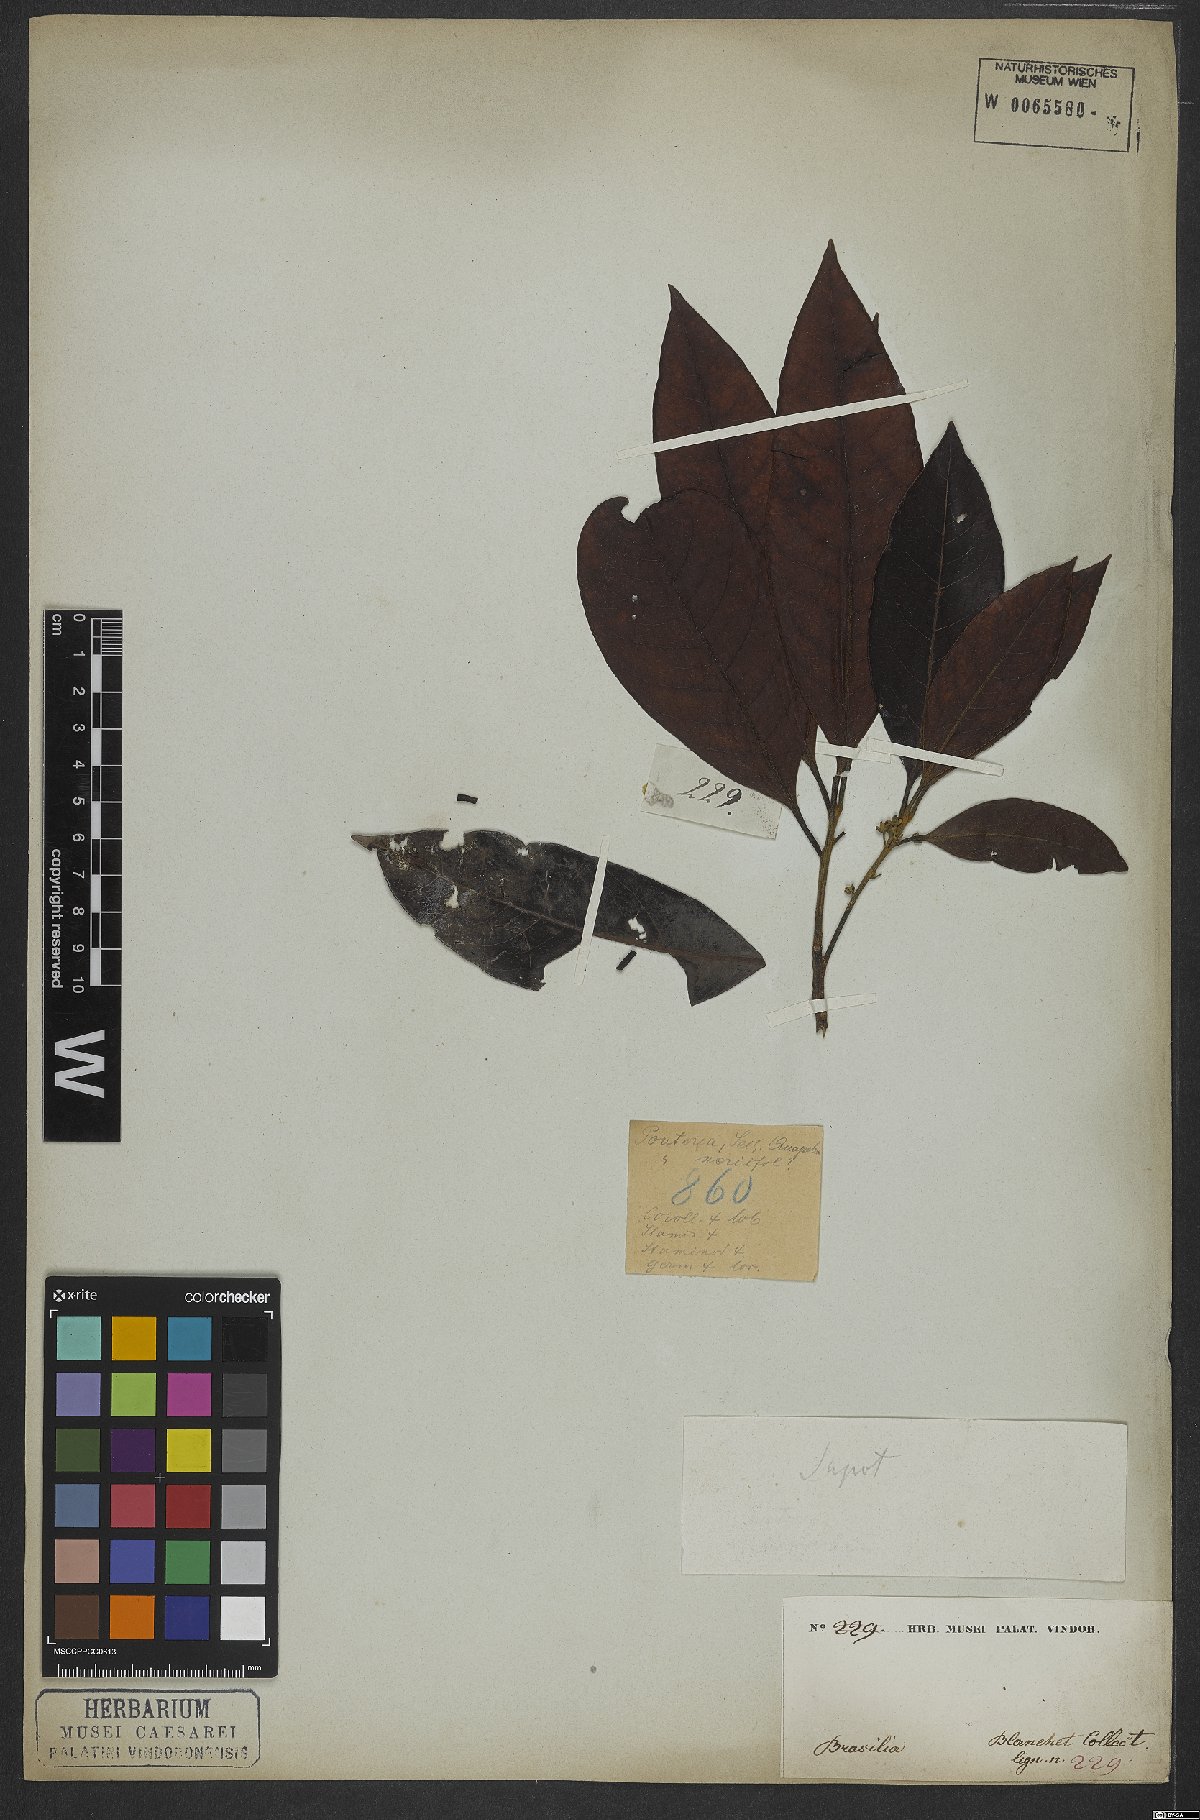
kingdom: Plantae
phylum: Tracheophyta
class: Magnoliopsida
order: Ericales
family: Sapotaceae
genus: Pouteria
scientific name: Pouteria
